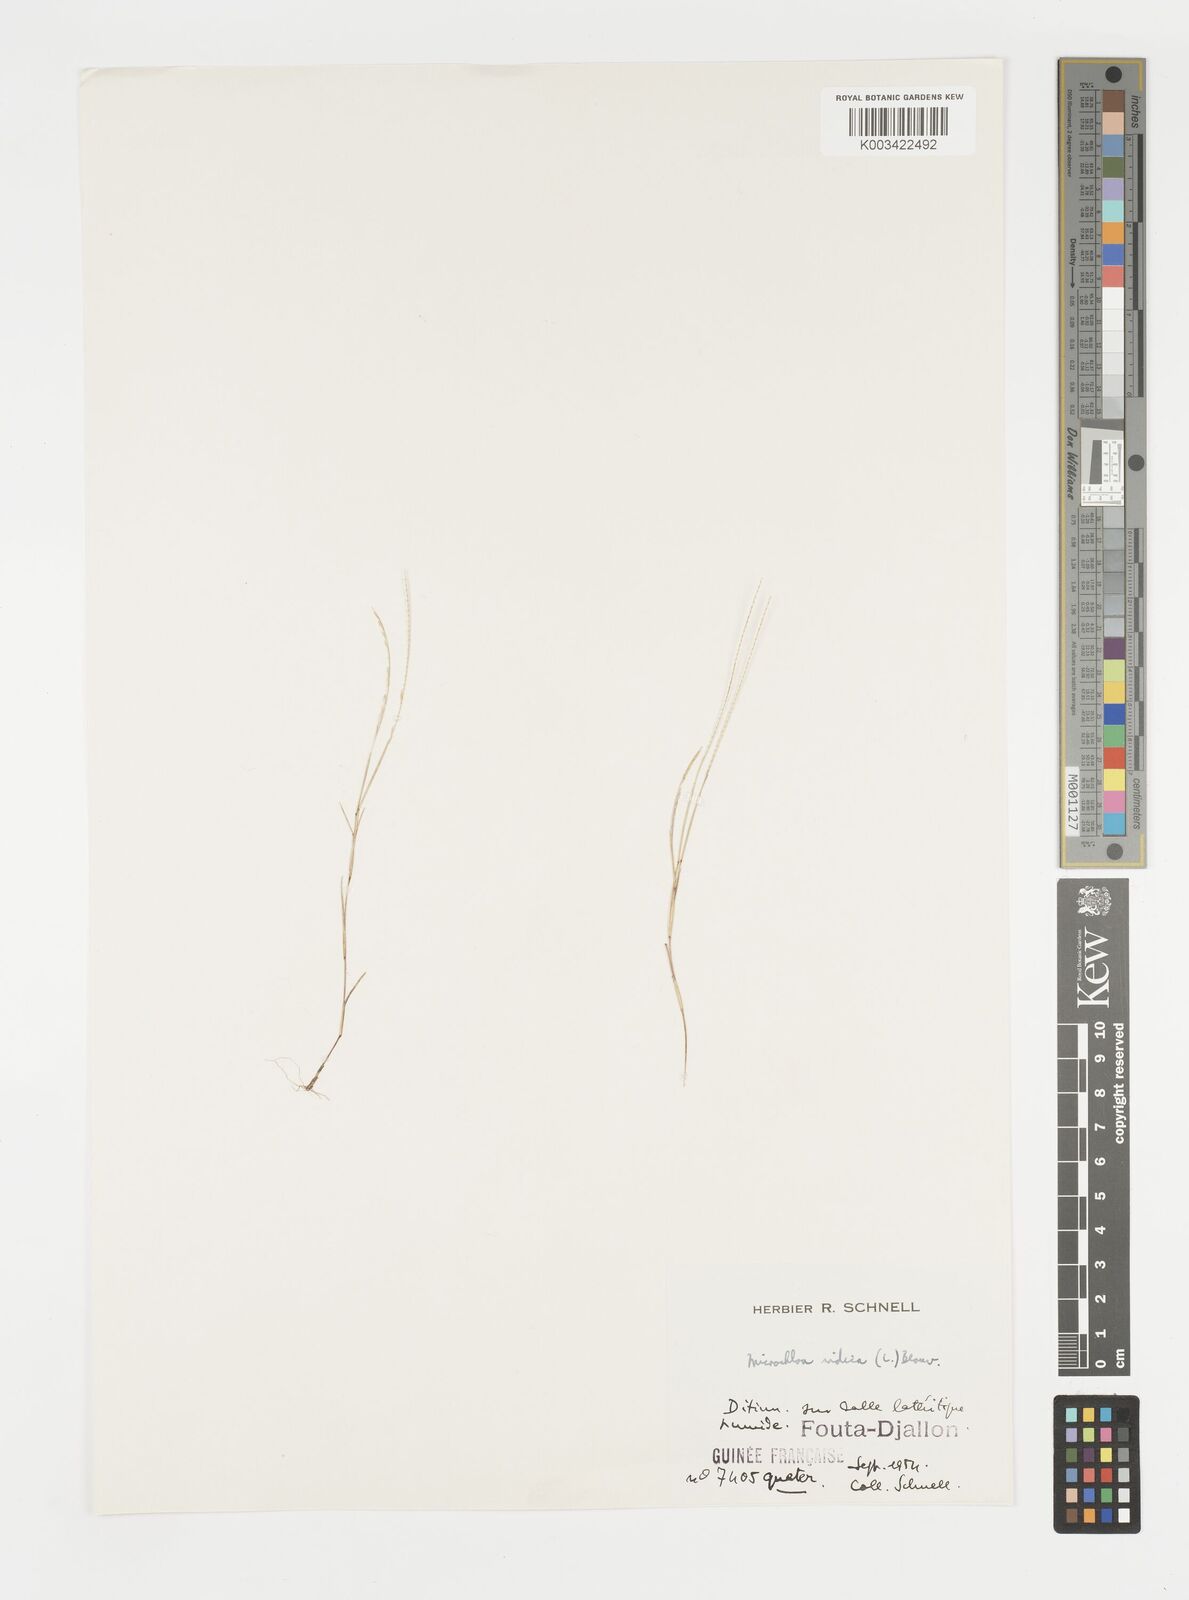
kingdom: Plantae
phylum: Tracheophyta
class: Liliopsida
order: Poales
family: Poaceae
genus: Microchloa
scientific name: Microchloa indica
